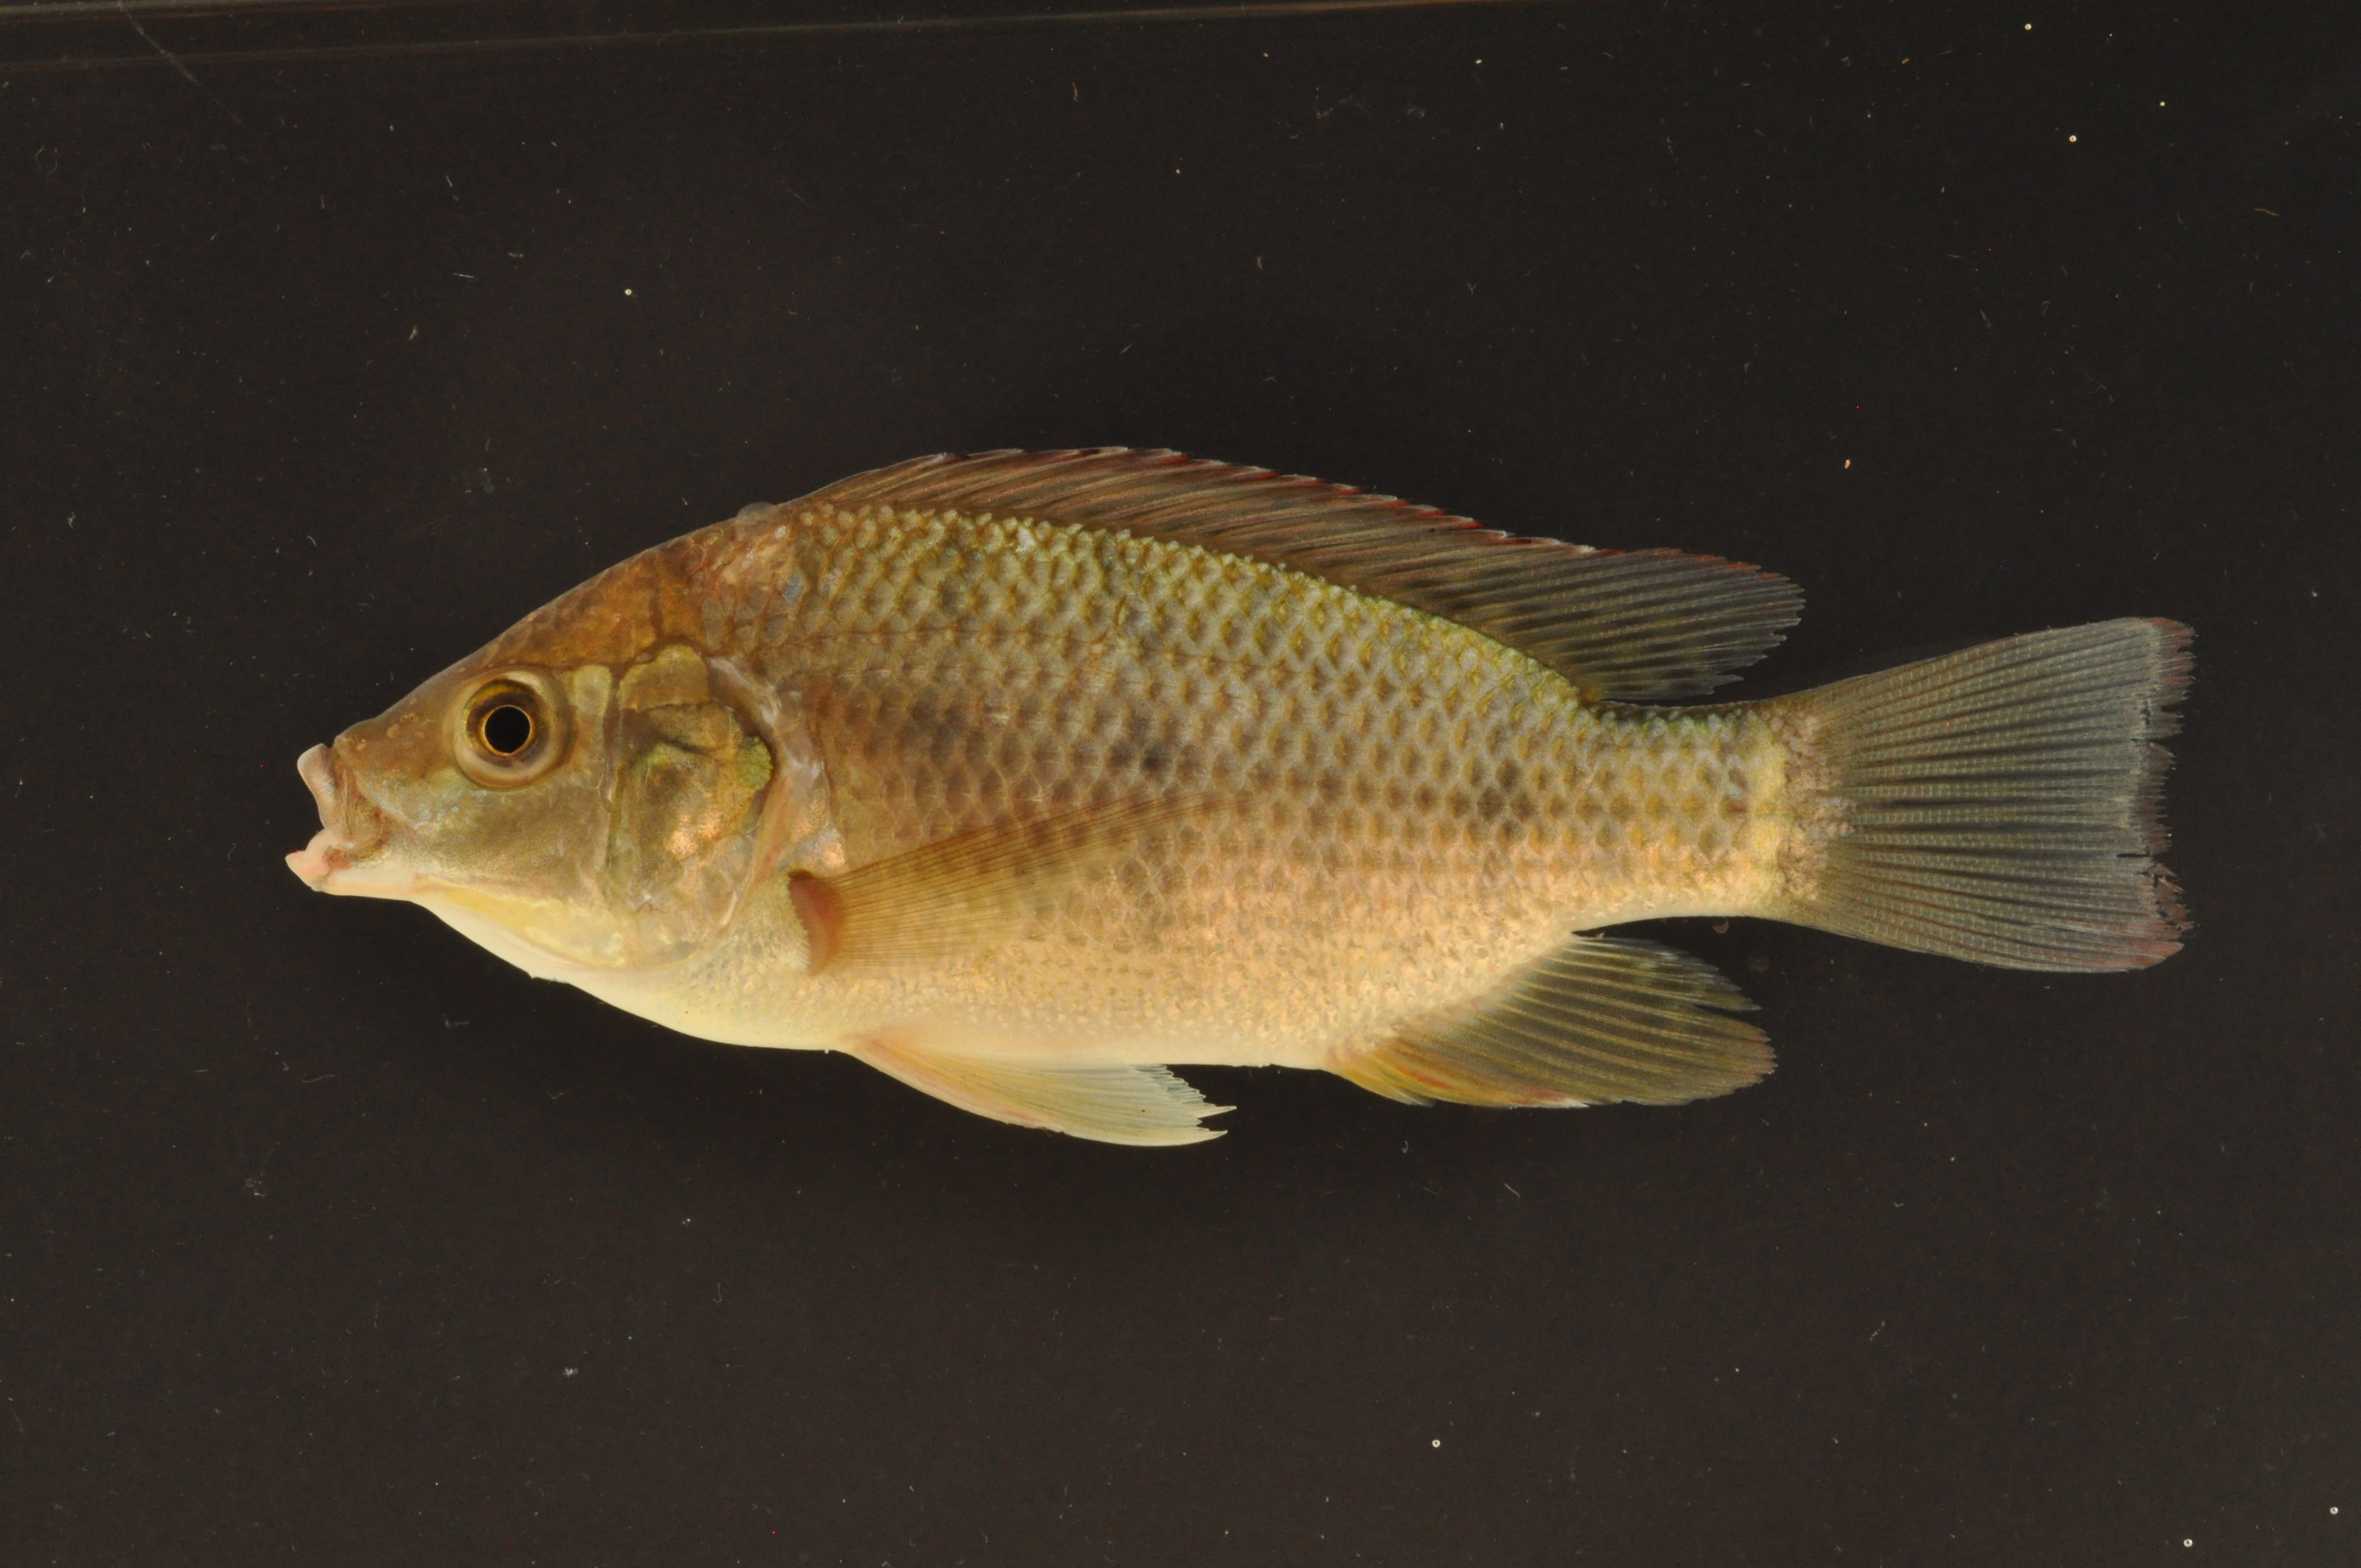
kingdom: Animalia
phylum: Chordata
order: Perciformes
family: Cichlidae
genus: Oreochromis
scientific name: Oreochromis mossambicus
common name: Mozambique tilapia
